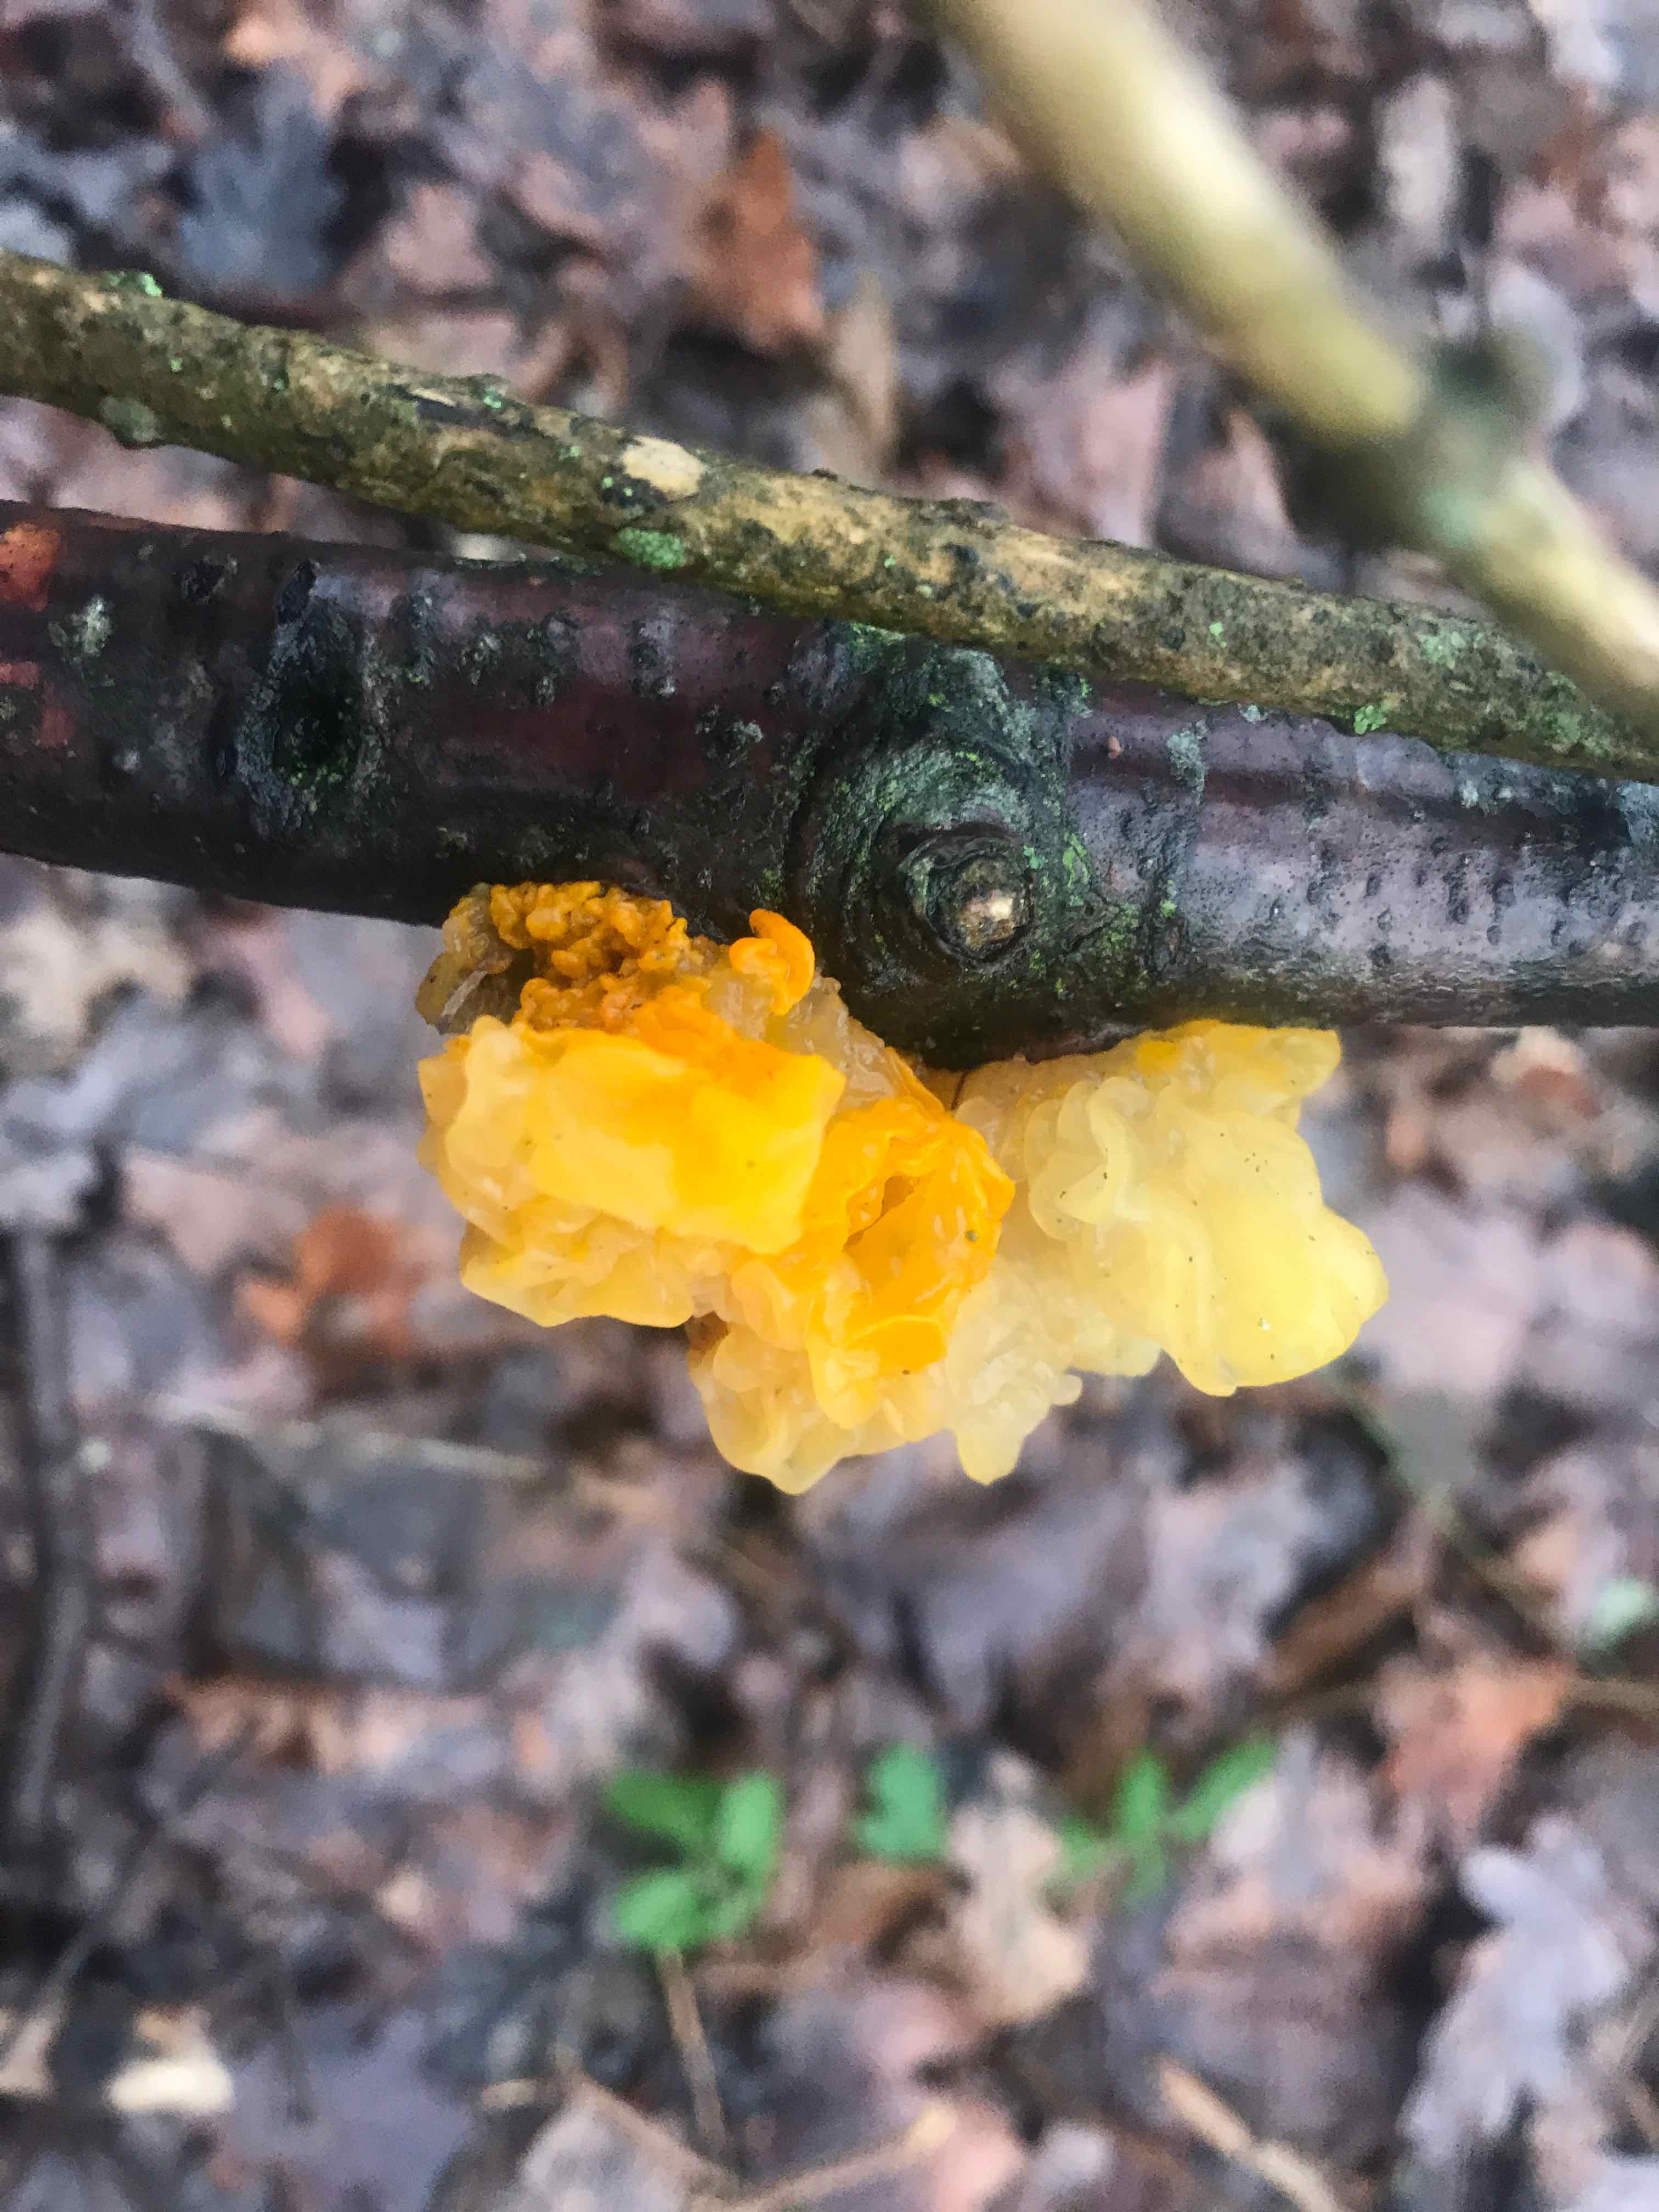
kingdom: Fungi
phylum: Basidiomycota
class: Tremellomycetes
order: Tremellales
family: Tremellaceae
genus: Tremella
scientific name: Tremella mesenterica
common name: gul bævresvamp
